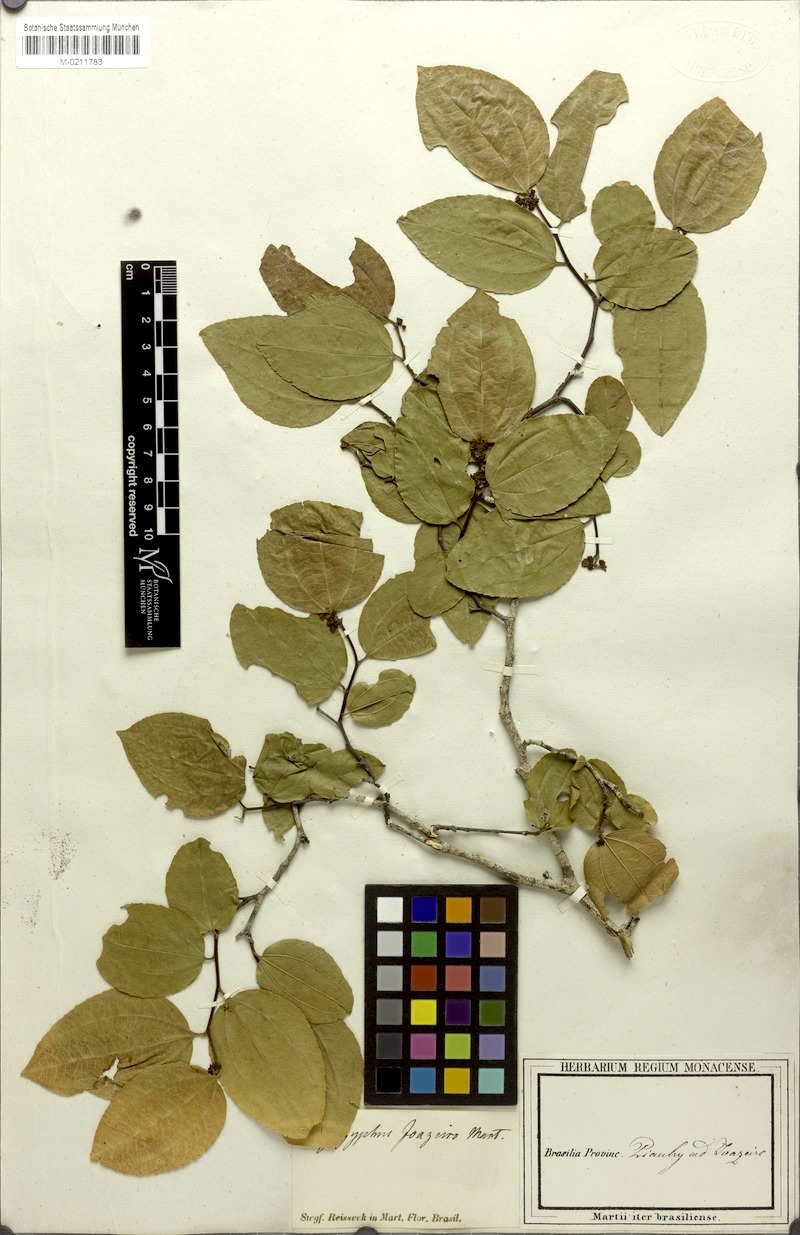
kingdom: Plantae
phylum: Tracheophyta
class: Magnoliopsida
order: Rosales
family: Rhamnaceae
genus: Sarcomphalus
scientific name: Sarcomphalus joazeiro
